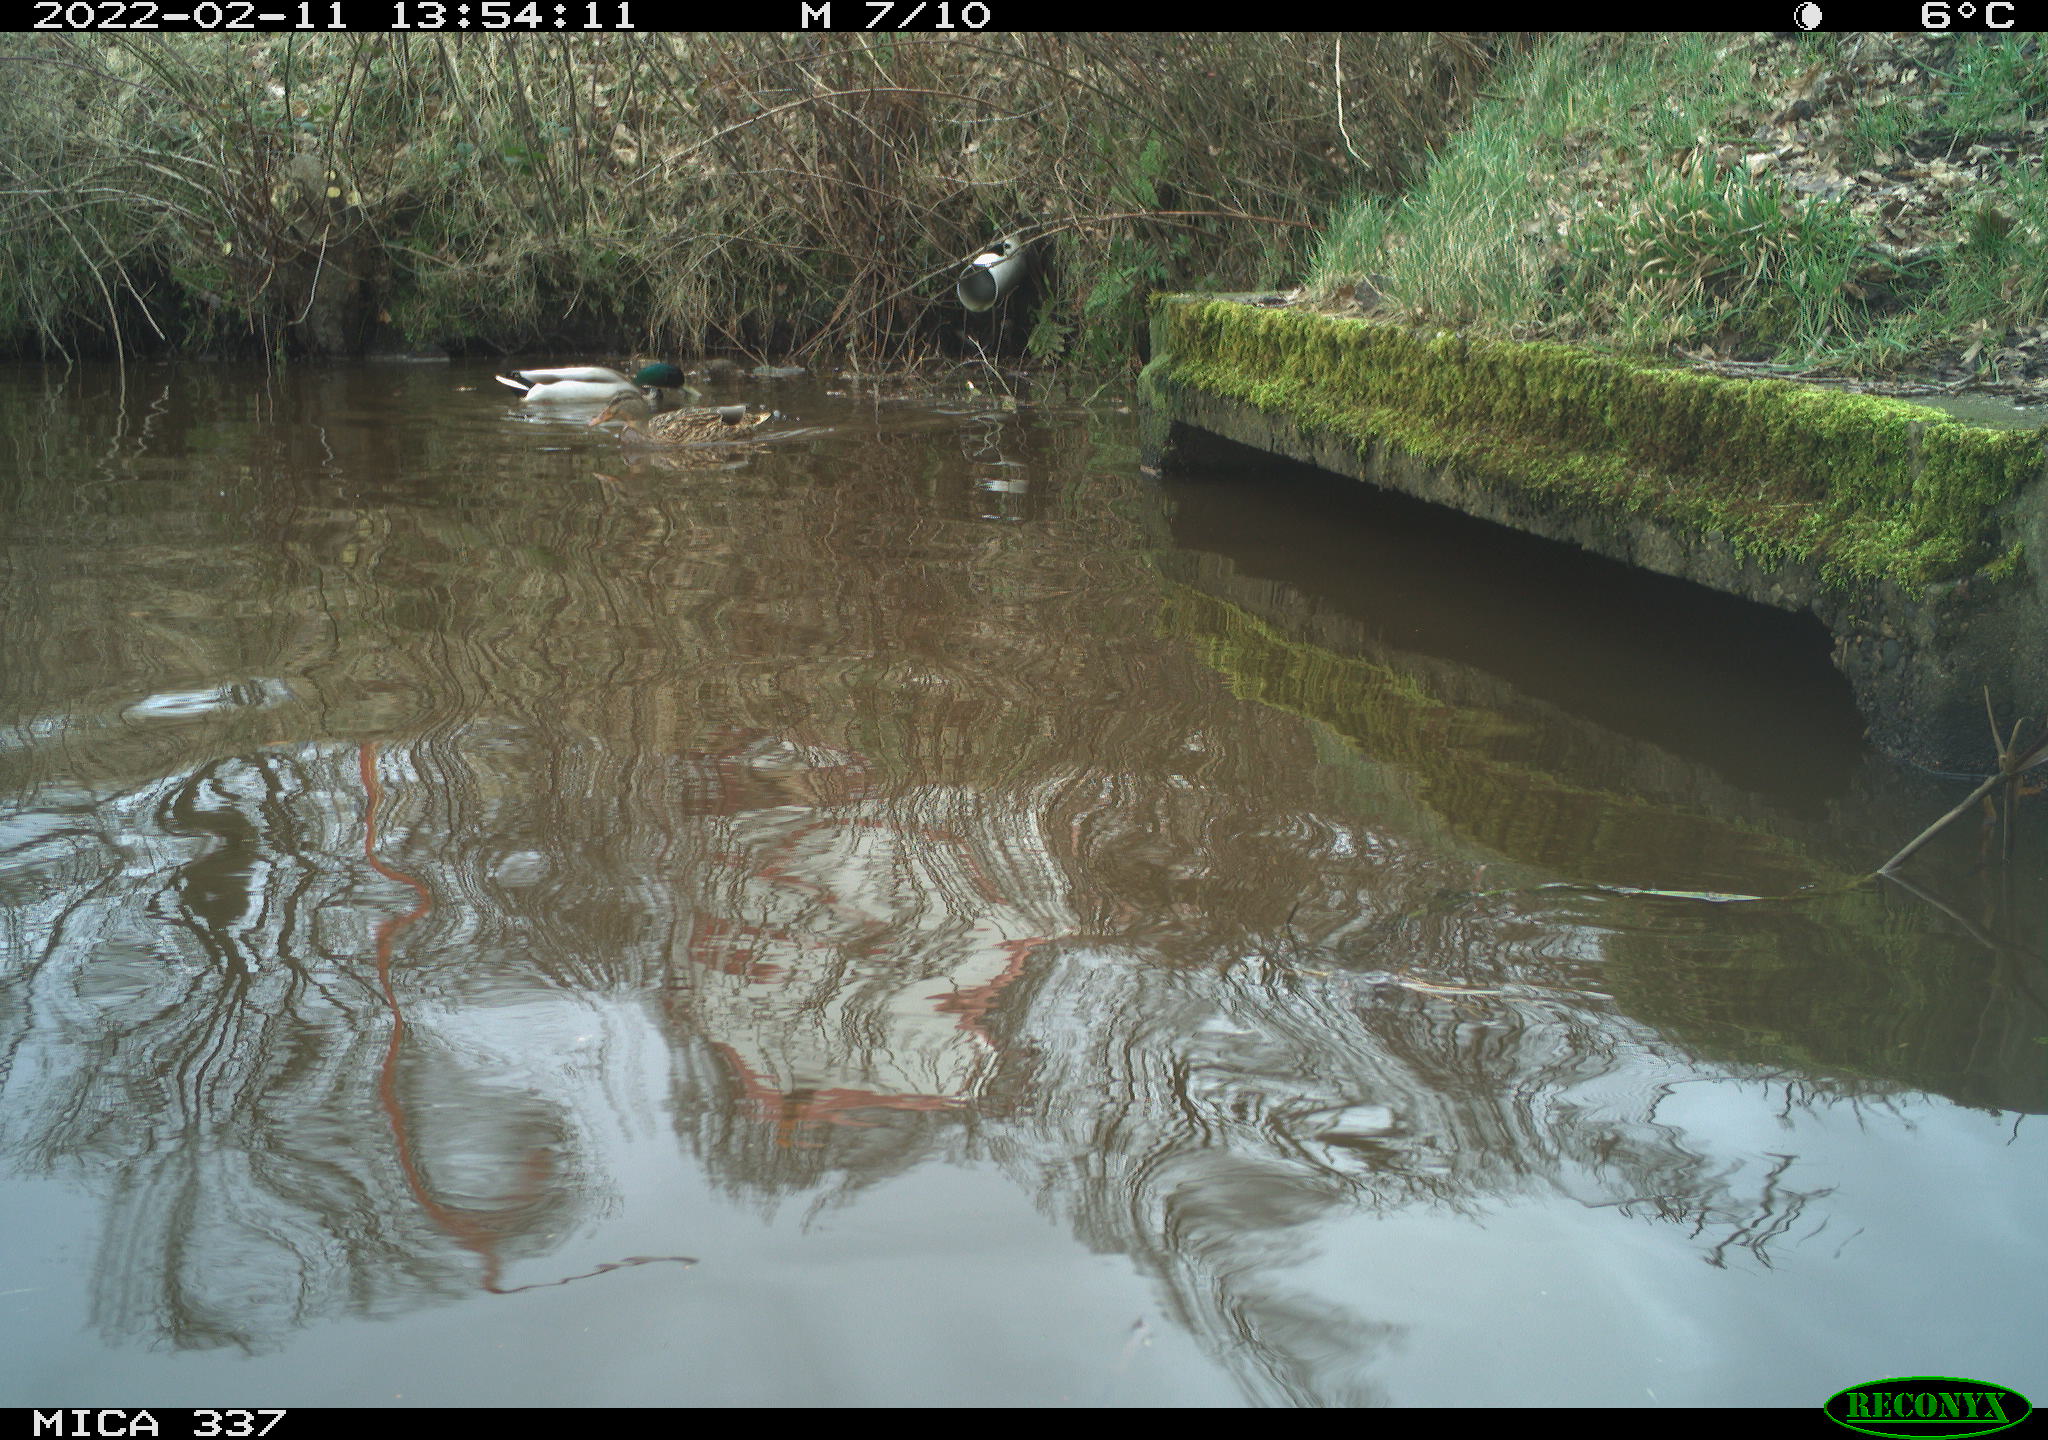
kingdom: Animalia
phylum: Chordata
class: Aves
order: Anseriformes
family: Anatidae
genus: Anas
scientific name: Anas platyrhynchos
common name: Mallard
